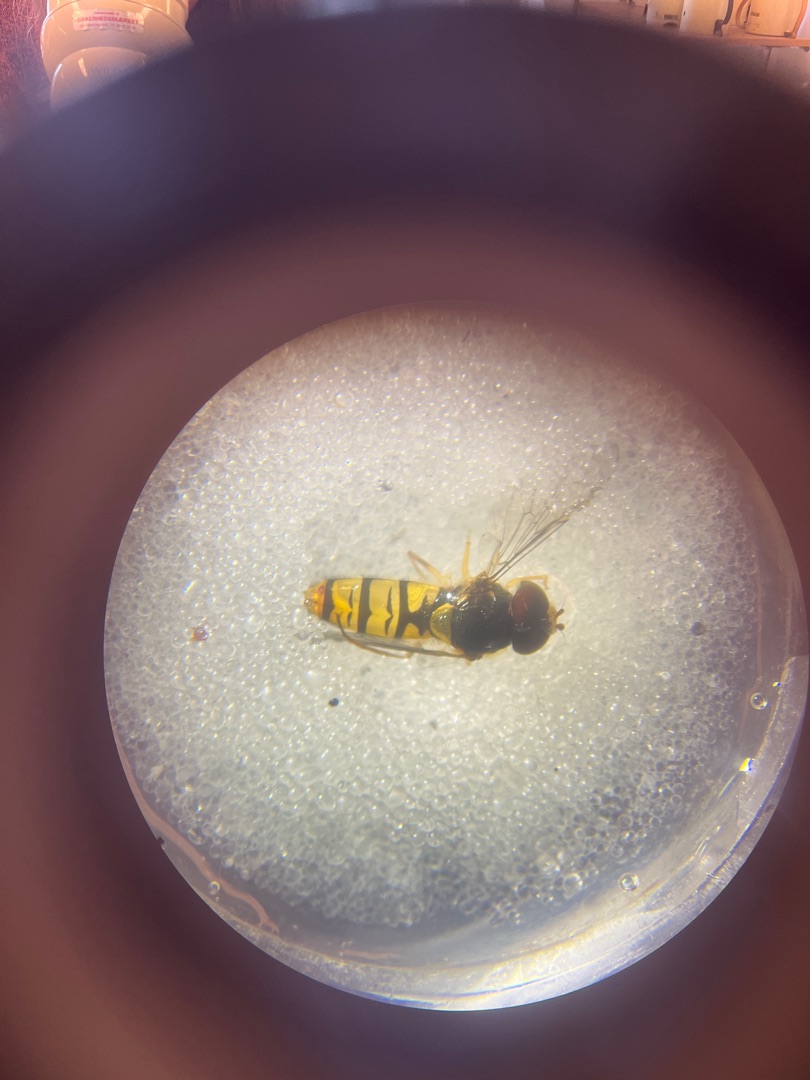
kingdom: Animalia
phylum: Arthropoda
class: Insecta
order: Diptera
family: Syrphidae
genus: Episyrphus
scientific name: Episyrphus balteatus
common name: Dobbeltbåndet svirreflue
